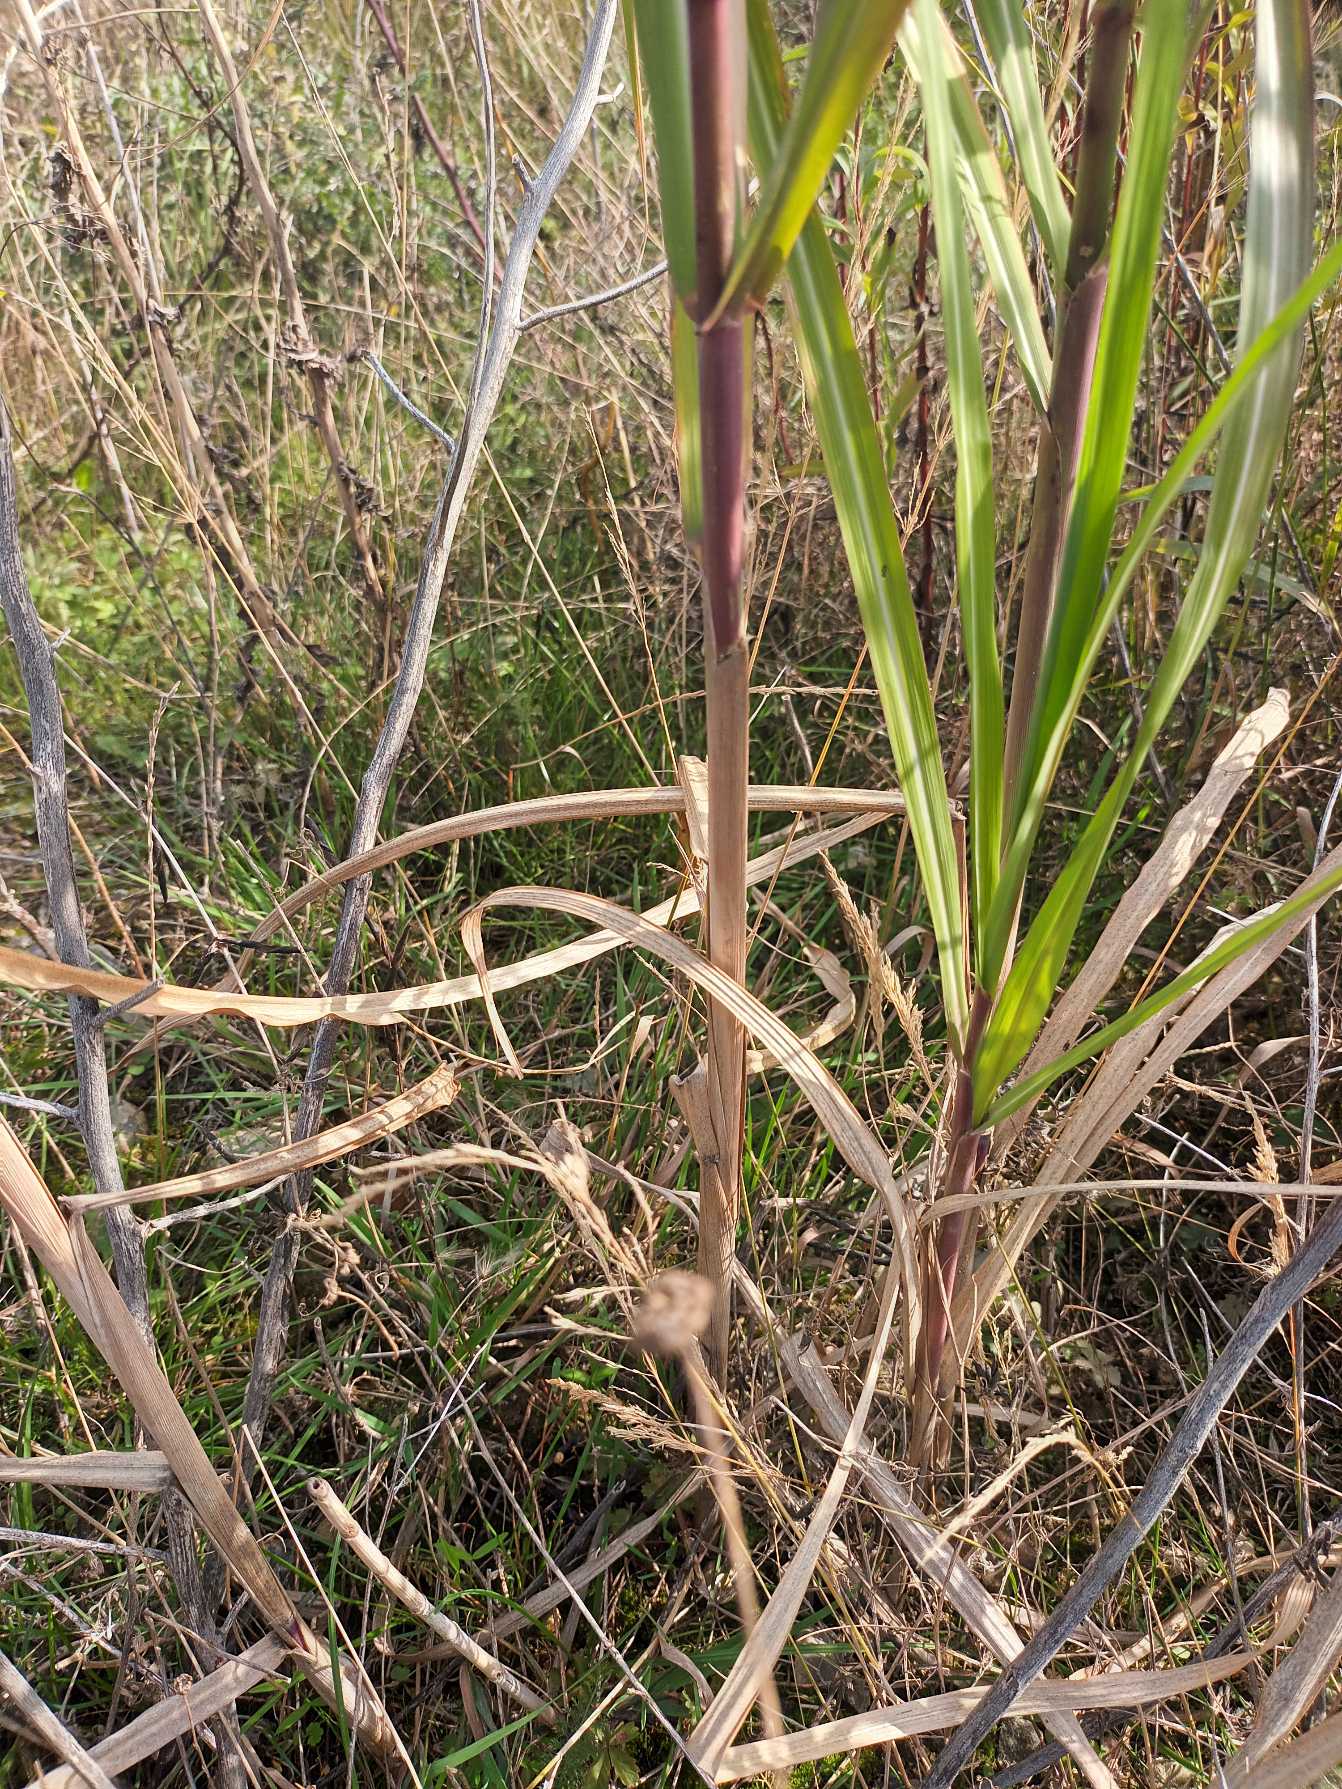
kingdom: Plantae
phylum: Tracheophyta
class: Liliopsida
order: Poales
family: Poaceae
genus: Miscanthus
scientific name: Miscanthus sinensis
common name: Elefantgræs
